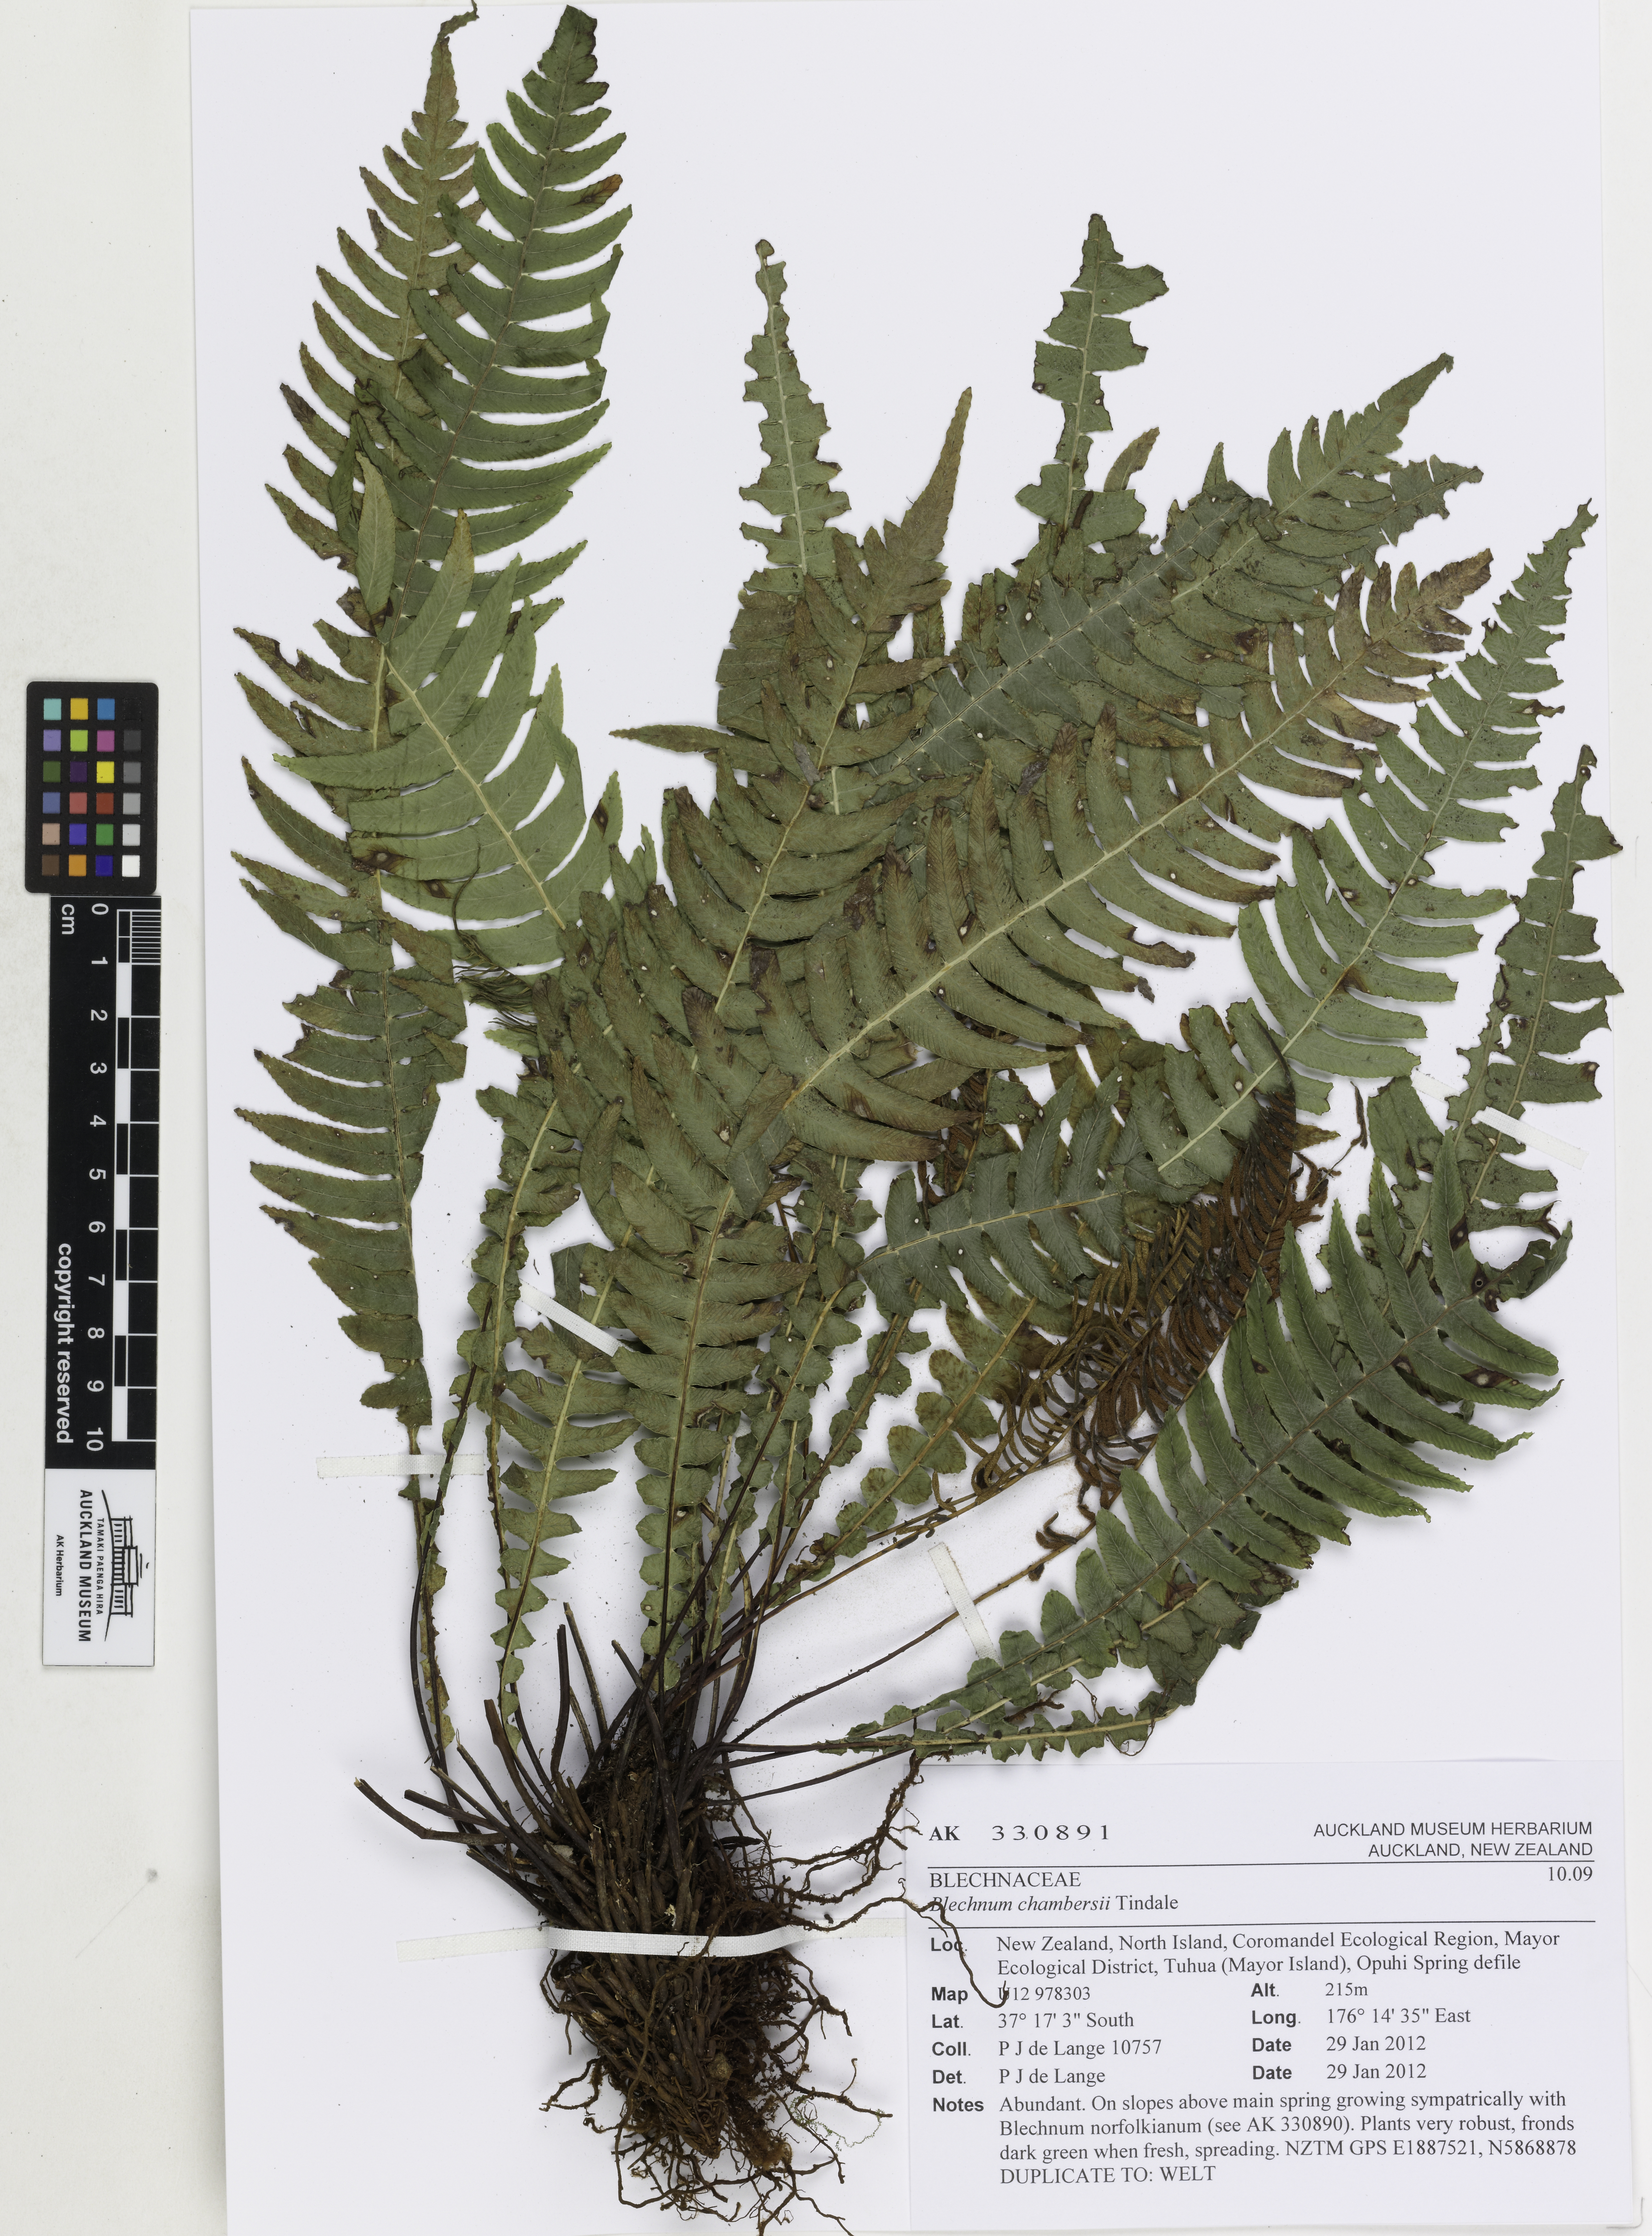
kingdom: Plantae
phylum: Tracheophyta
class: Polypodiopsida
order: Polypodiales
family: Blechnaceae
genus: Austroblechnum
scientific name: Austroblechnum lanceolatum
